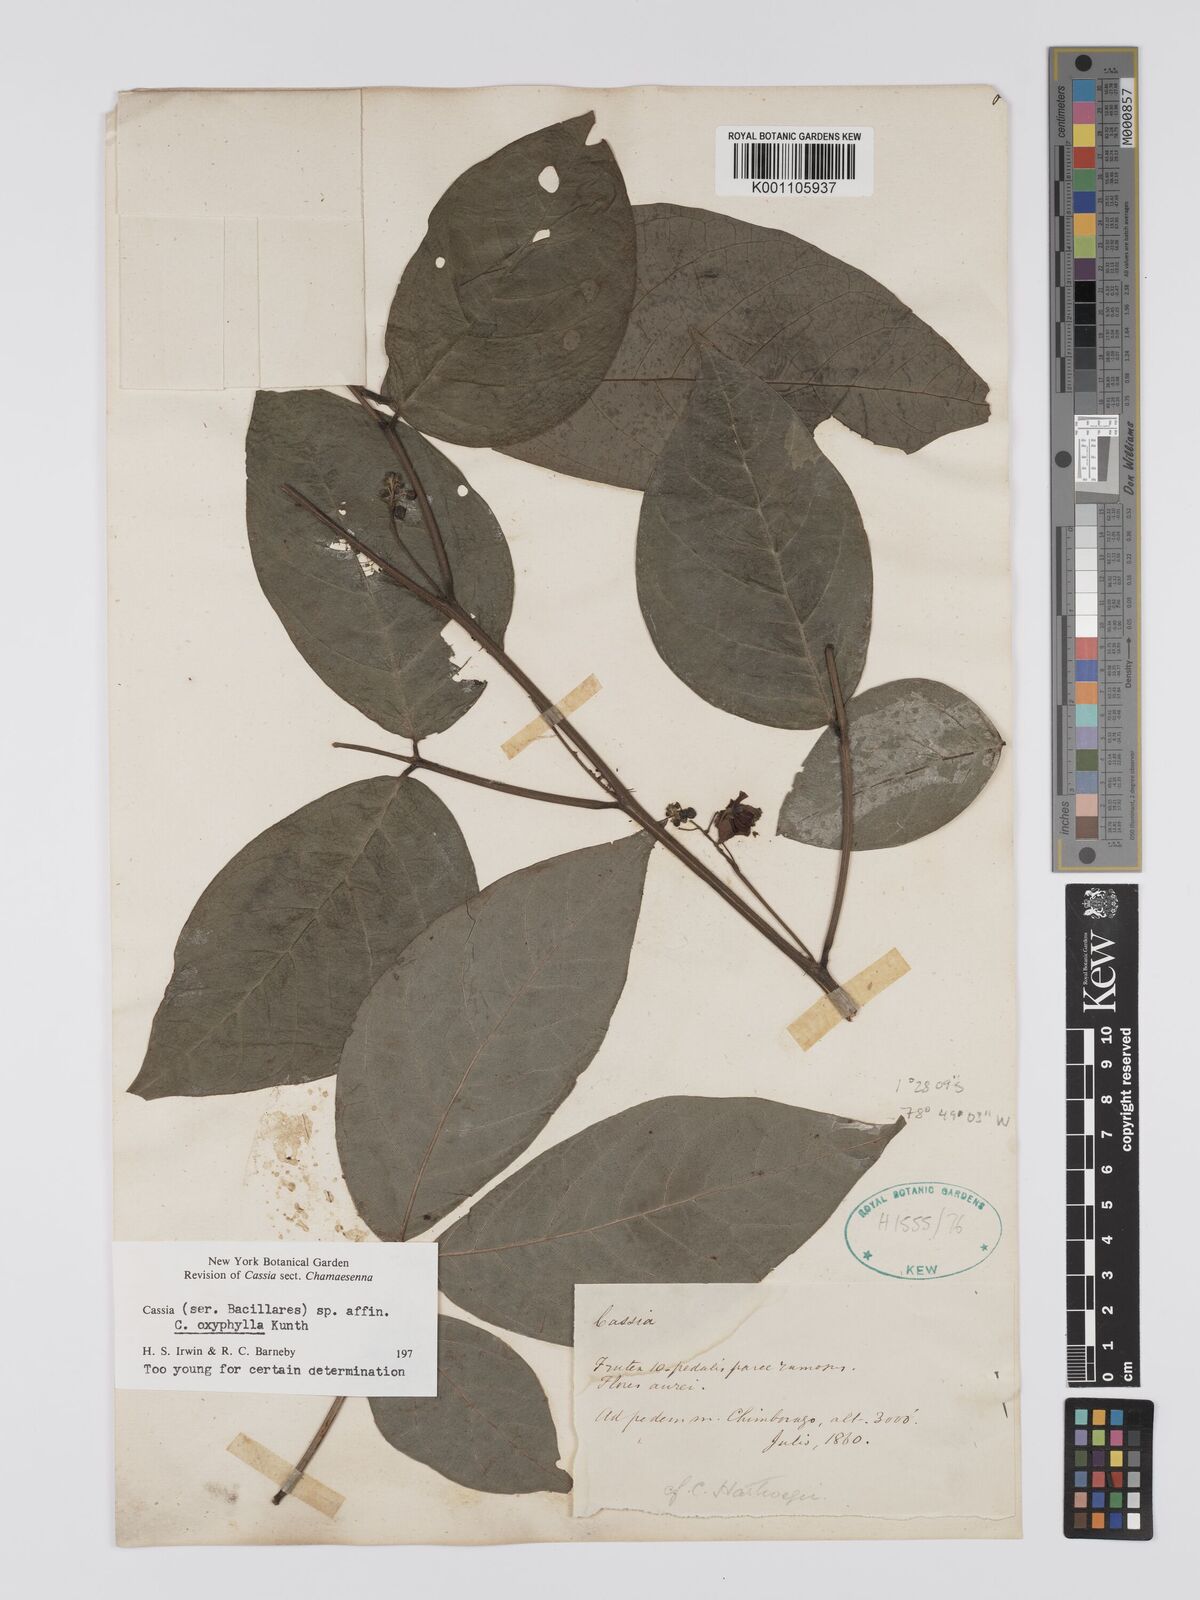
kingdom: Plantae
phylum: Tracheophyta
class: Magnoliopsida
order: Fabales
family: Fabaceae
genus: Senna
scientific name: Senna oxyphylla
